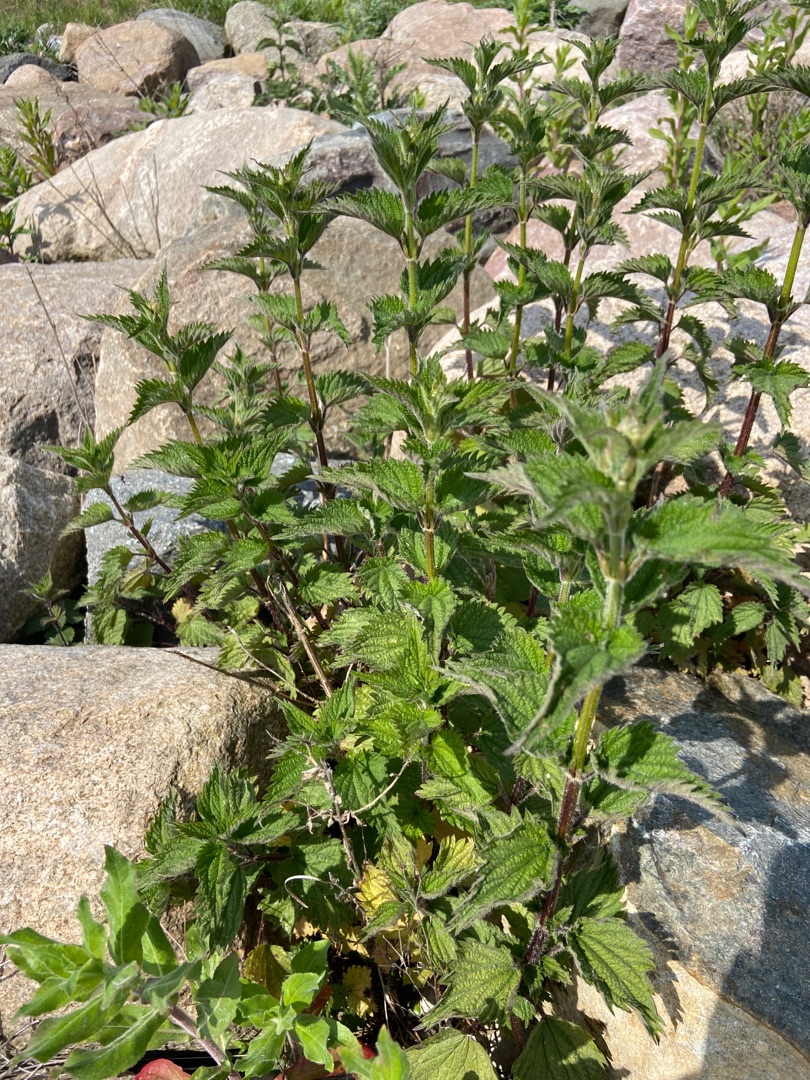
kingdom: Plantae
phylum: Tracheophyta
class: Magnoliopsida
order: Rosales
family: Urticaceae
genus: Urtica
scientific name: Urtica dioica
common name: Stor nælde
